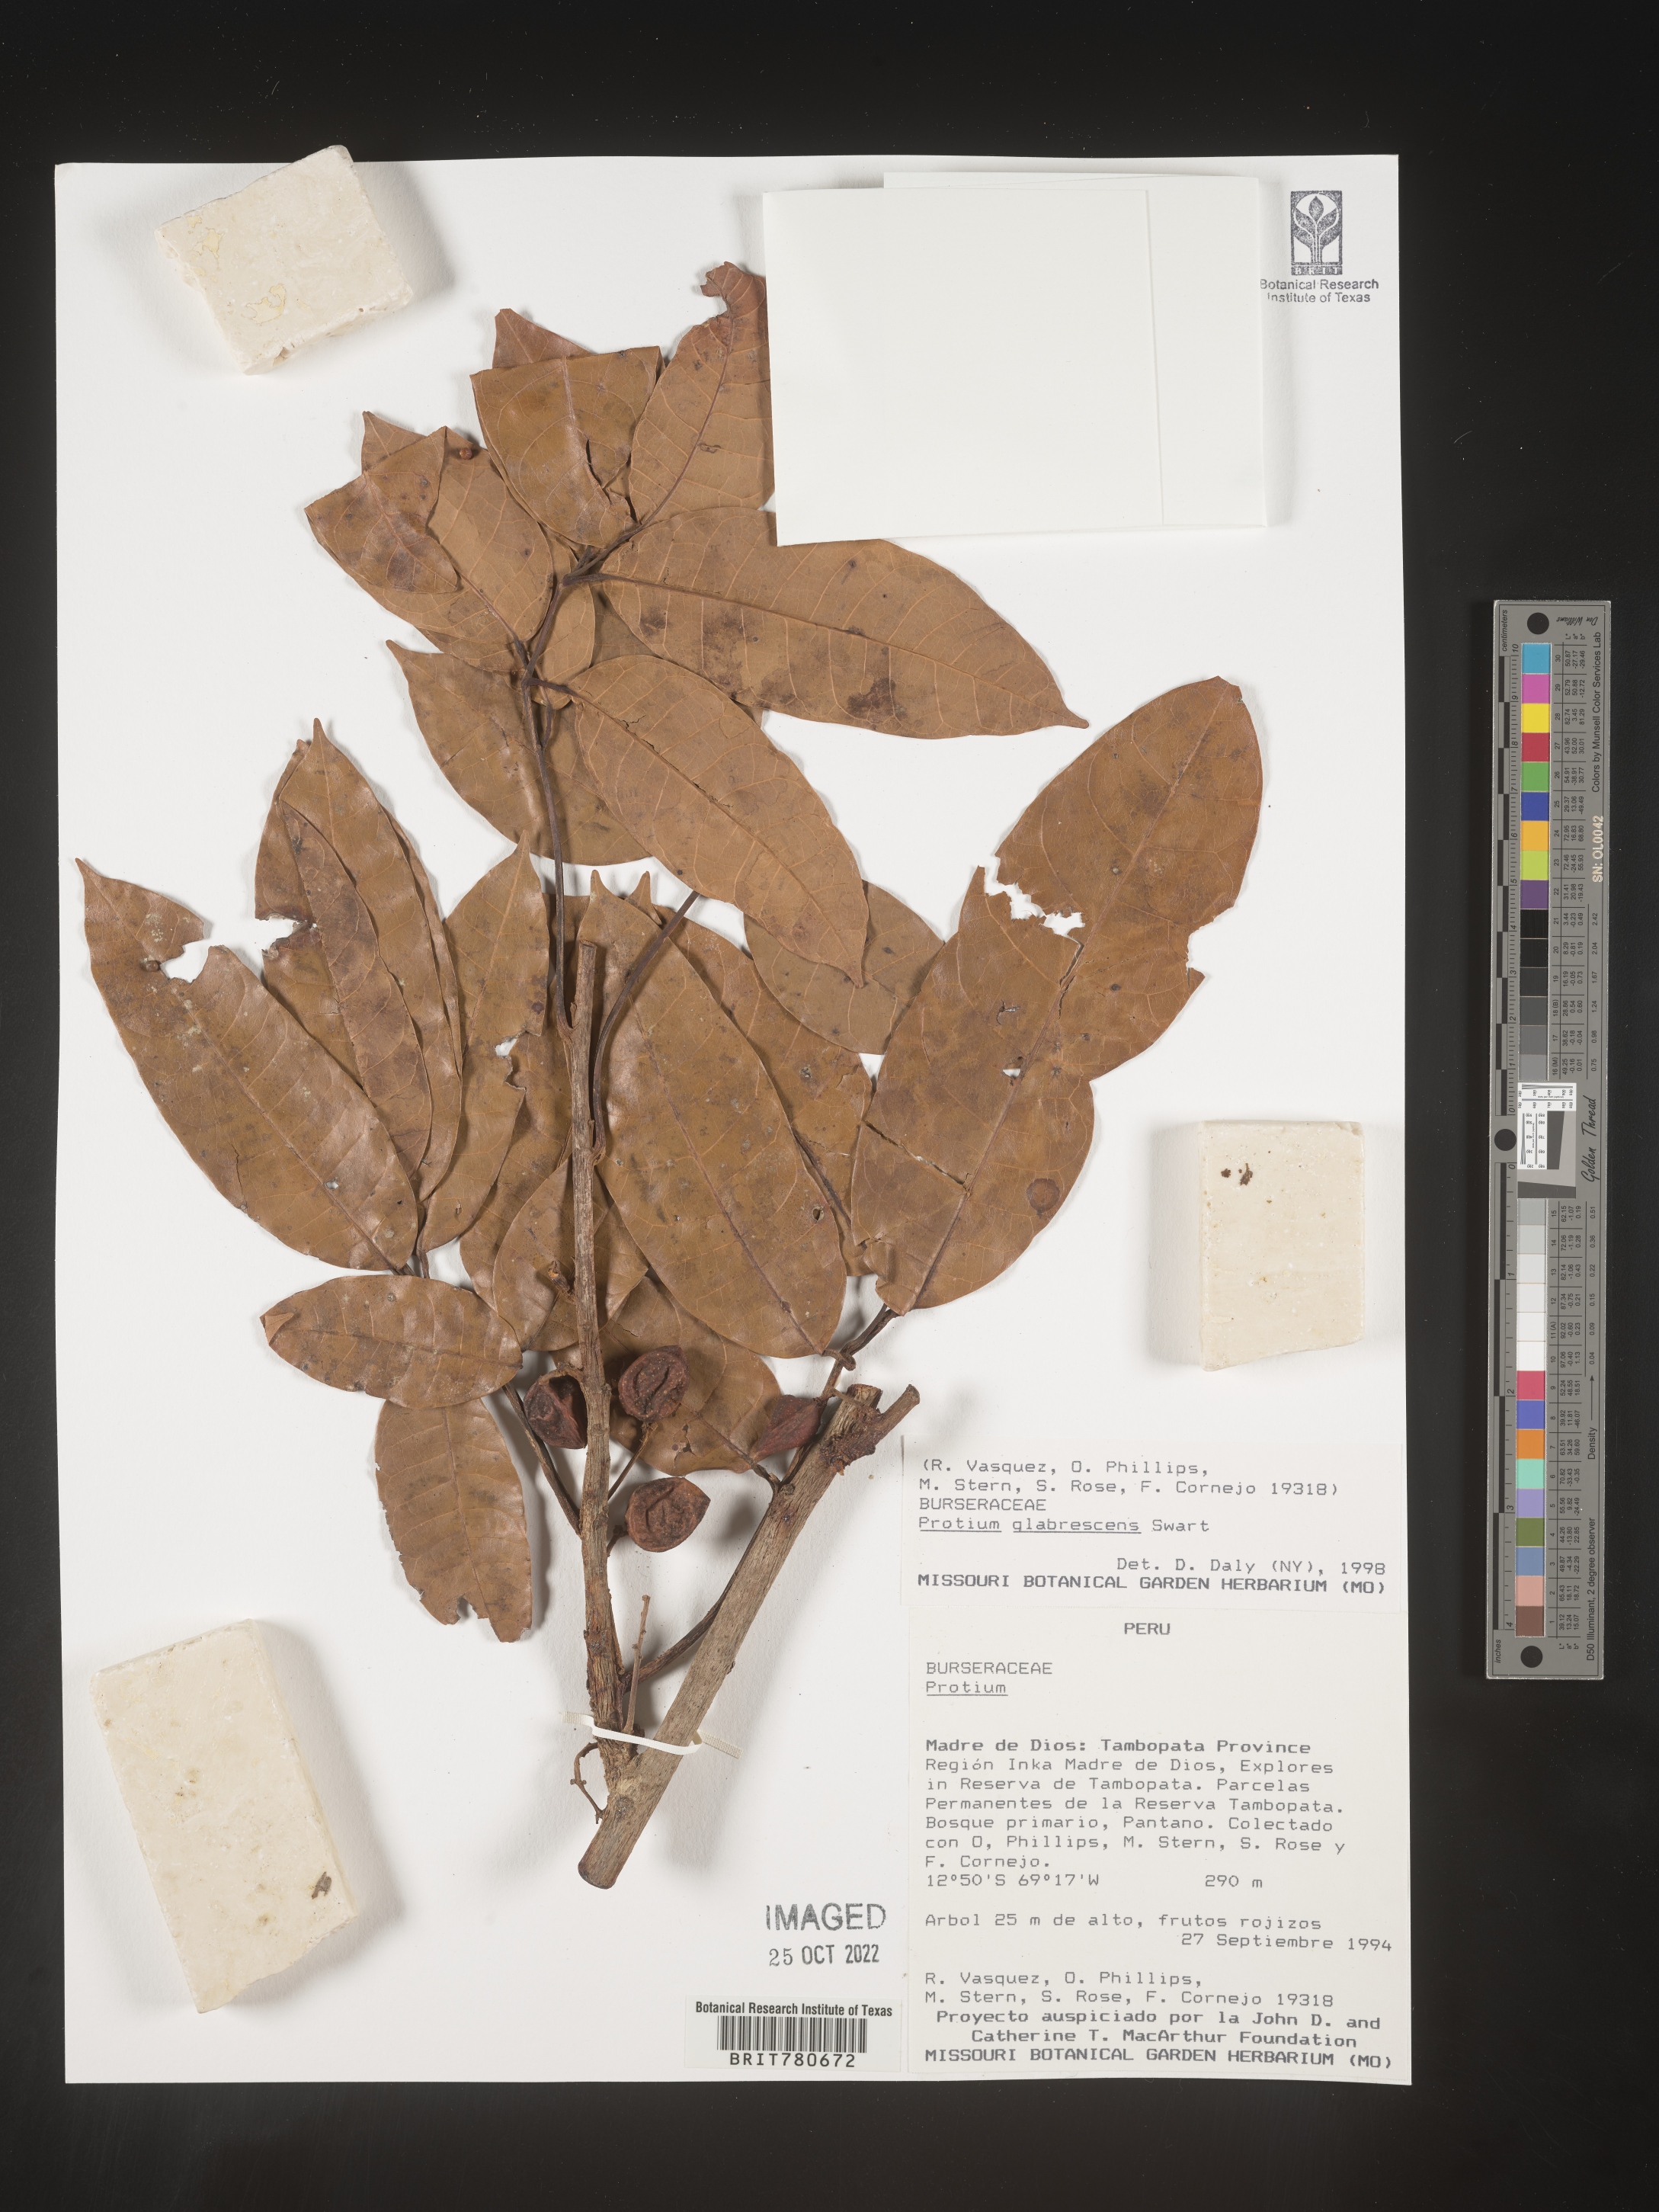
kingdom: Plantae
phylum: Tracheophyta
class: Magnoliopsida
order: Sapindales
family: Burseraceae
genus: Protium
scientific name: Protium
